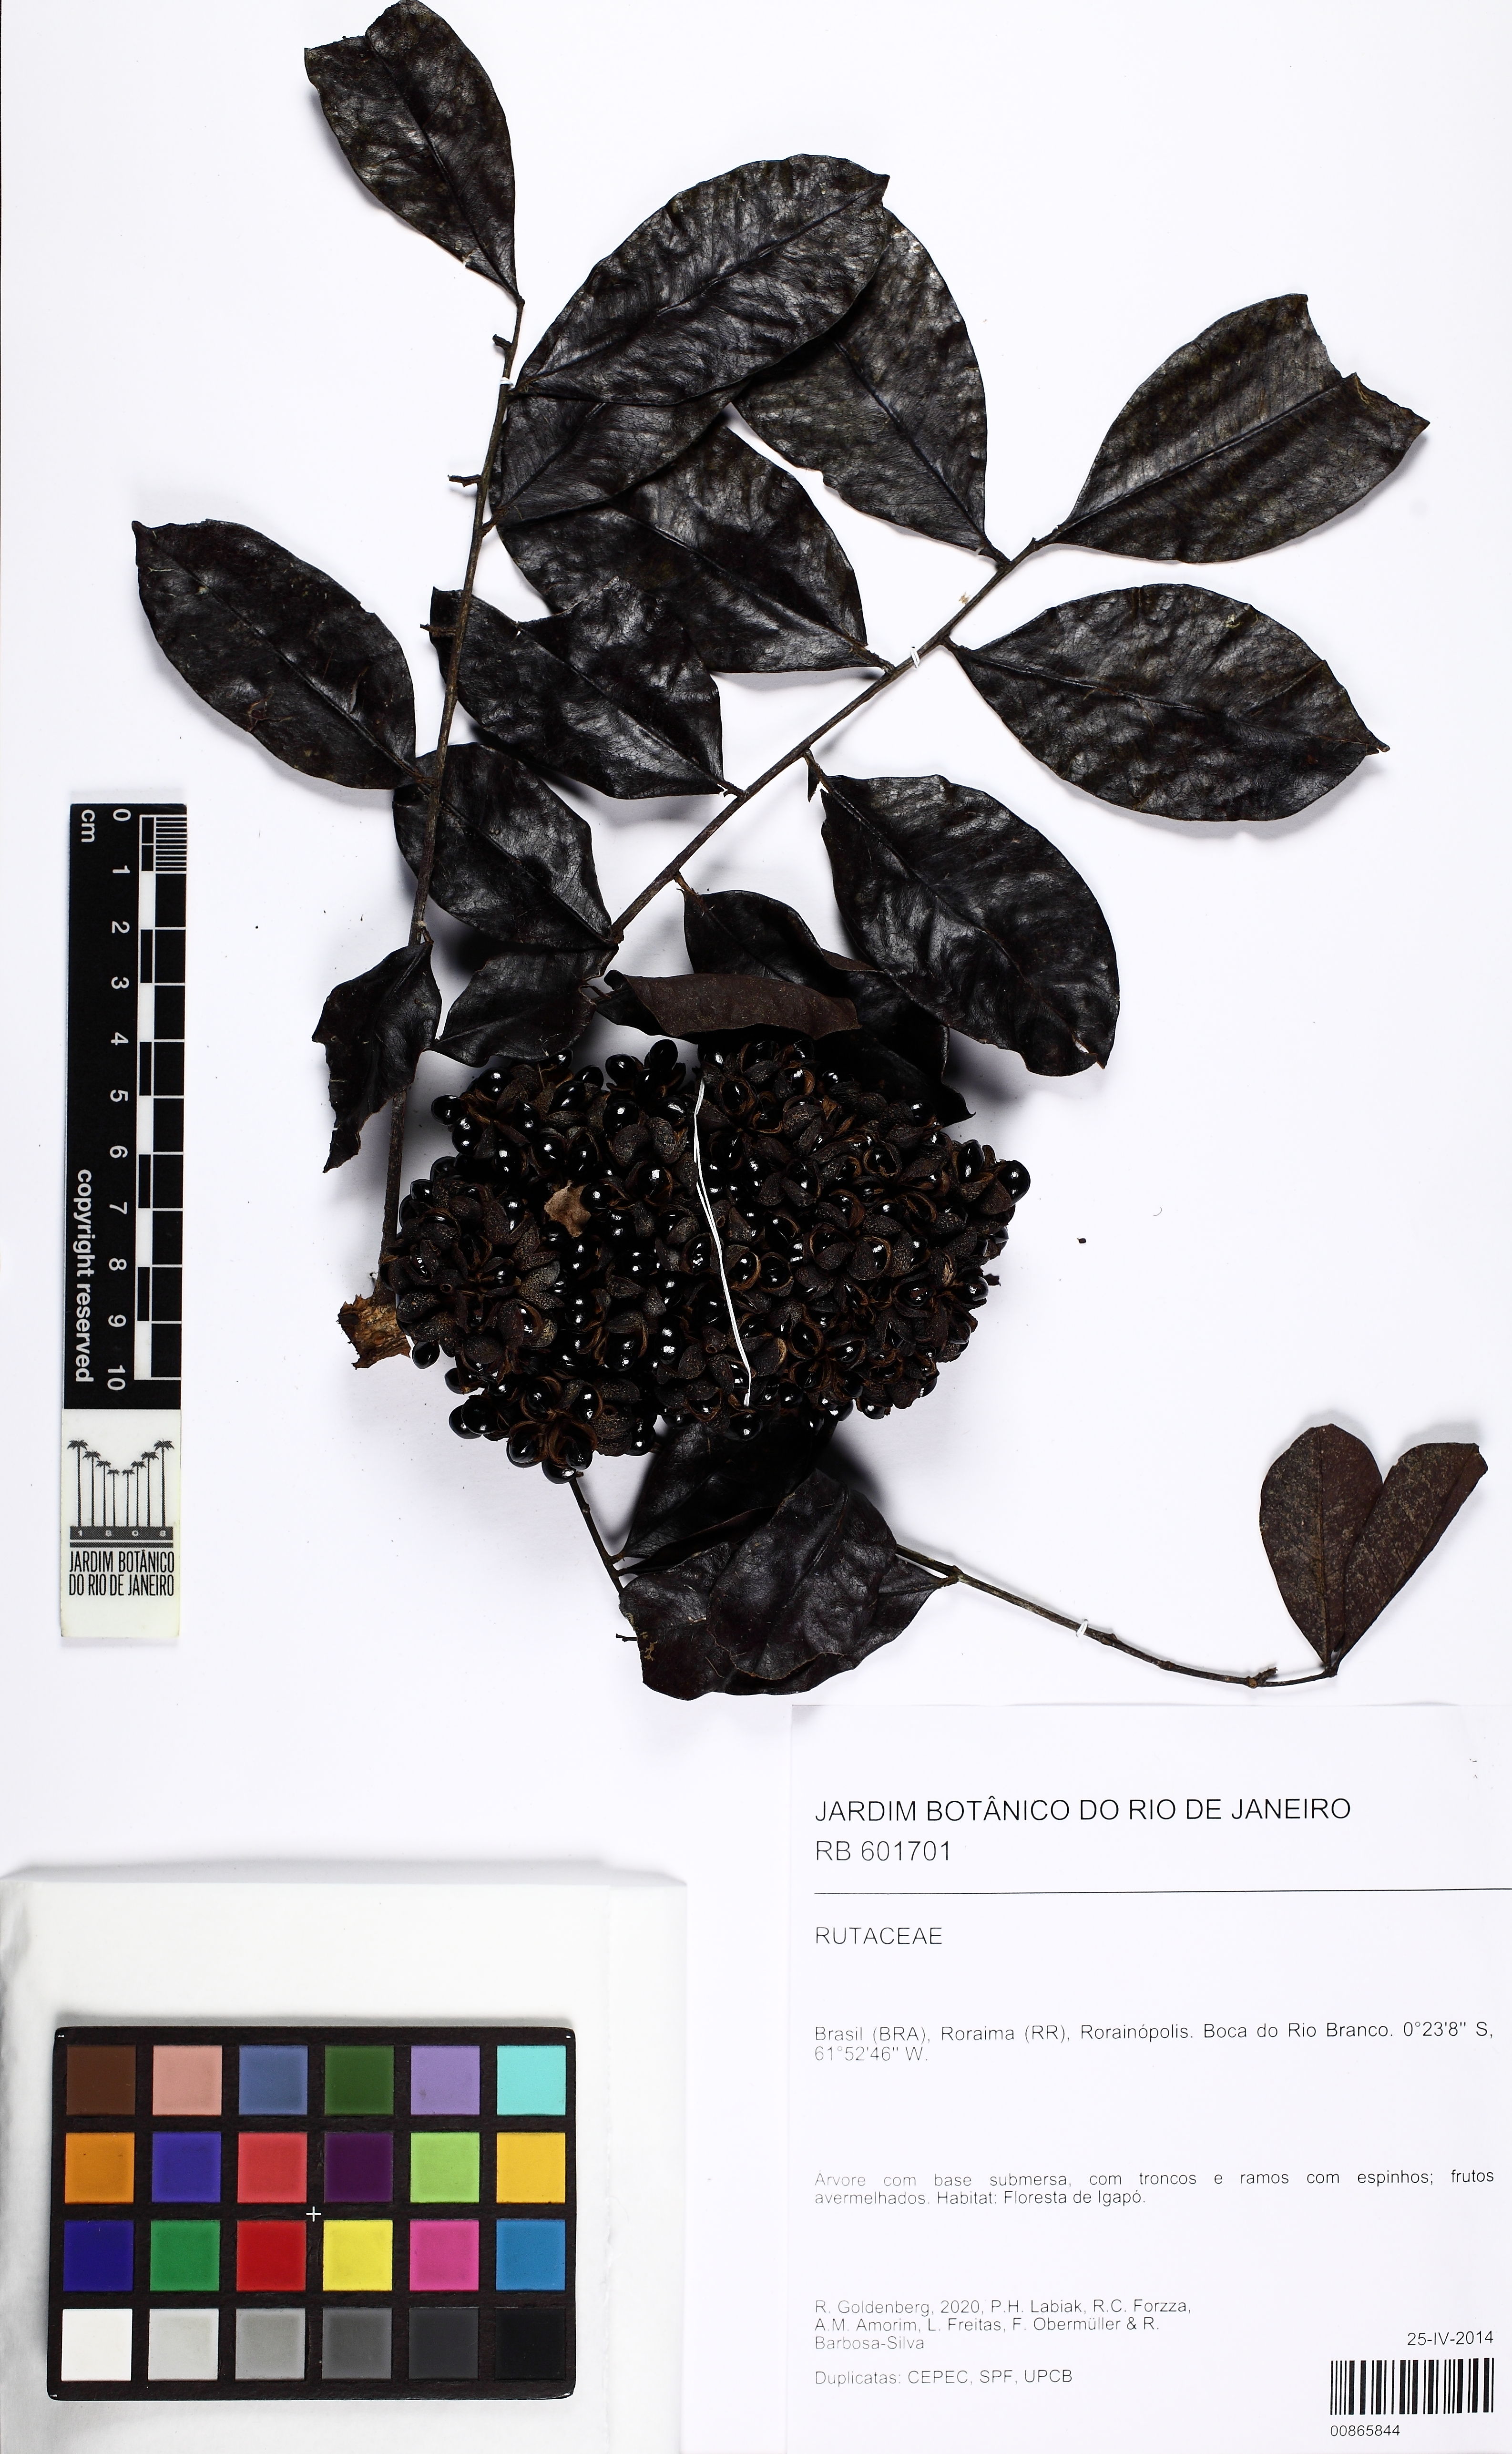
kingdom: Plantae
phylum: Tracheophyta
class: Magnoliopsida
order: Sapindales
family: Rutaceae
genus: Zanthoxylum
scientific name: Zanthoxylum compactum
